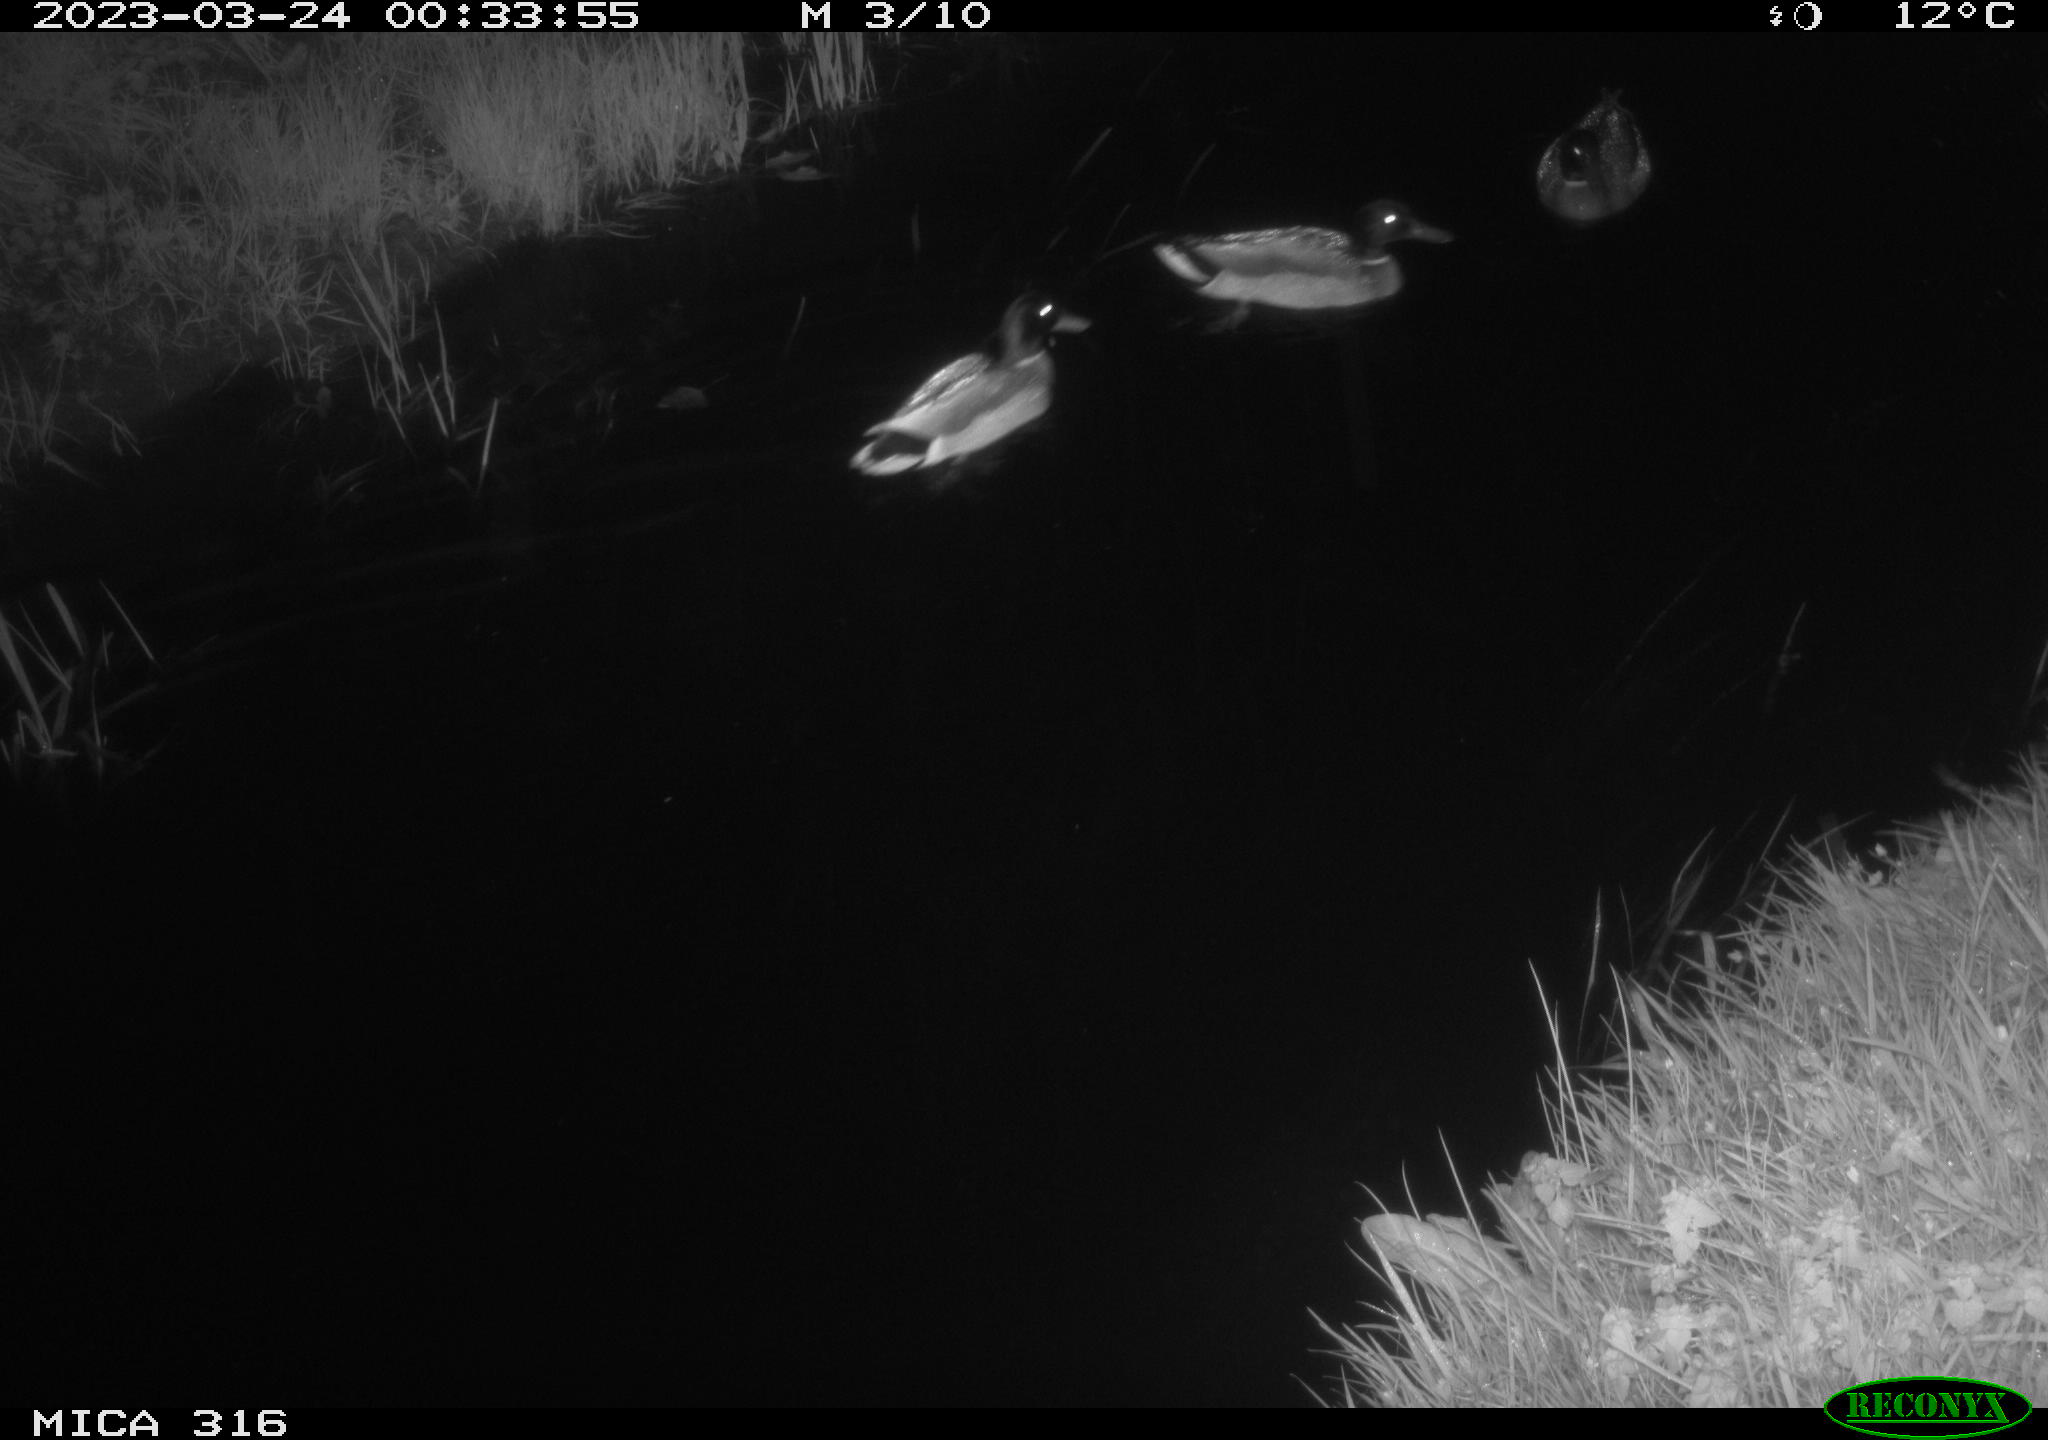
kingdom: Animalia
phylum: Chordata
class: Aves
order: Anseriformes
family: Anatidae
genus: Anas
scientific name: Anas
